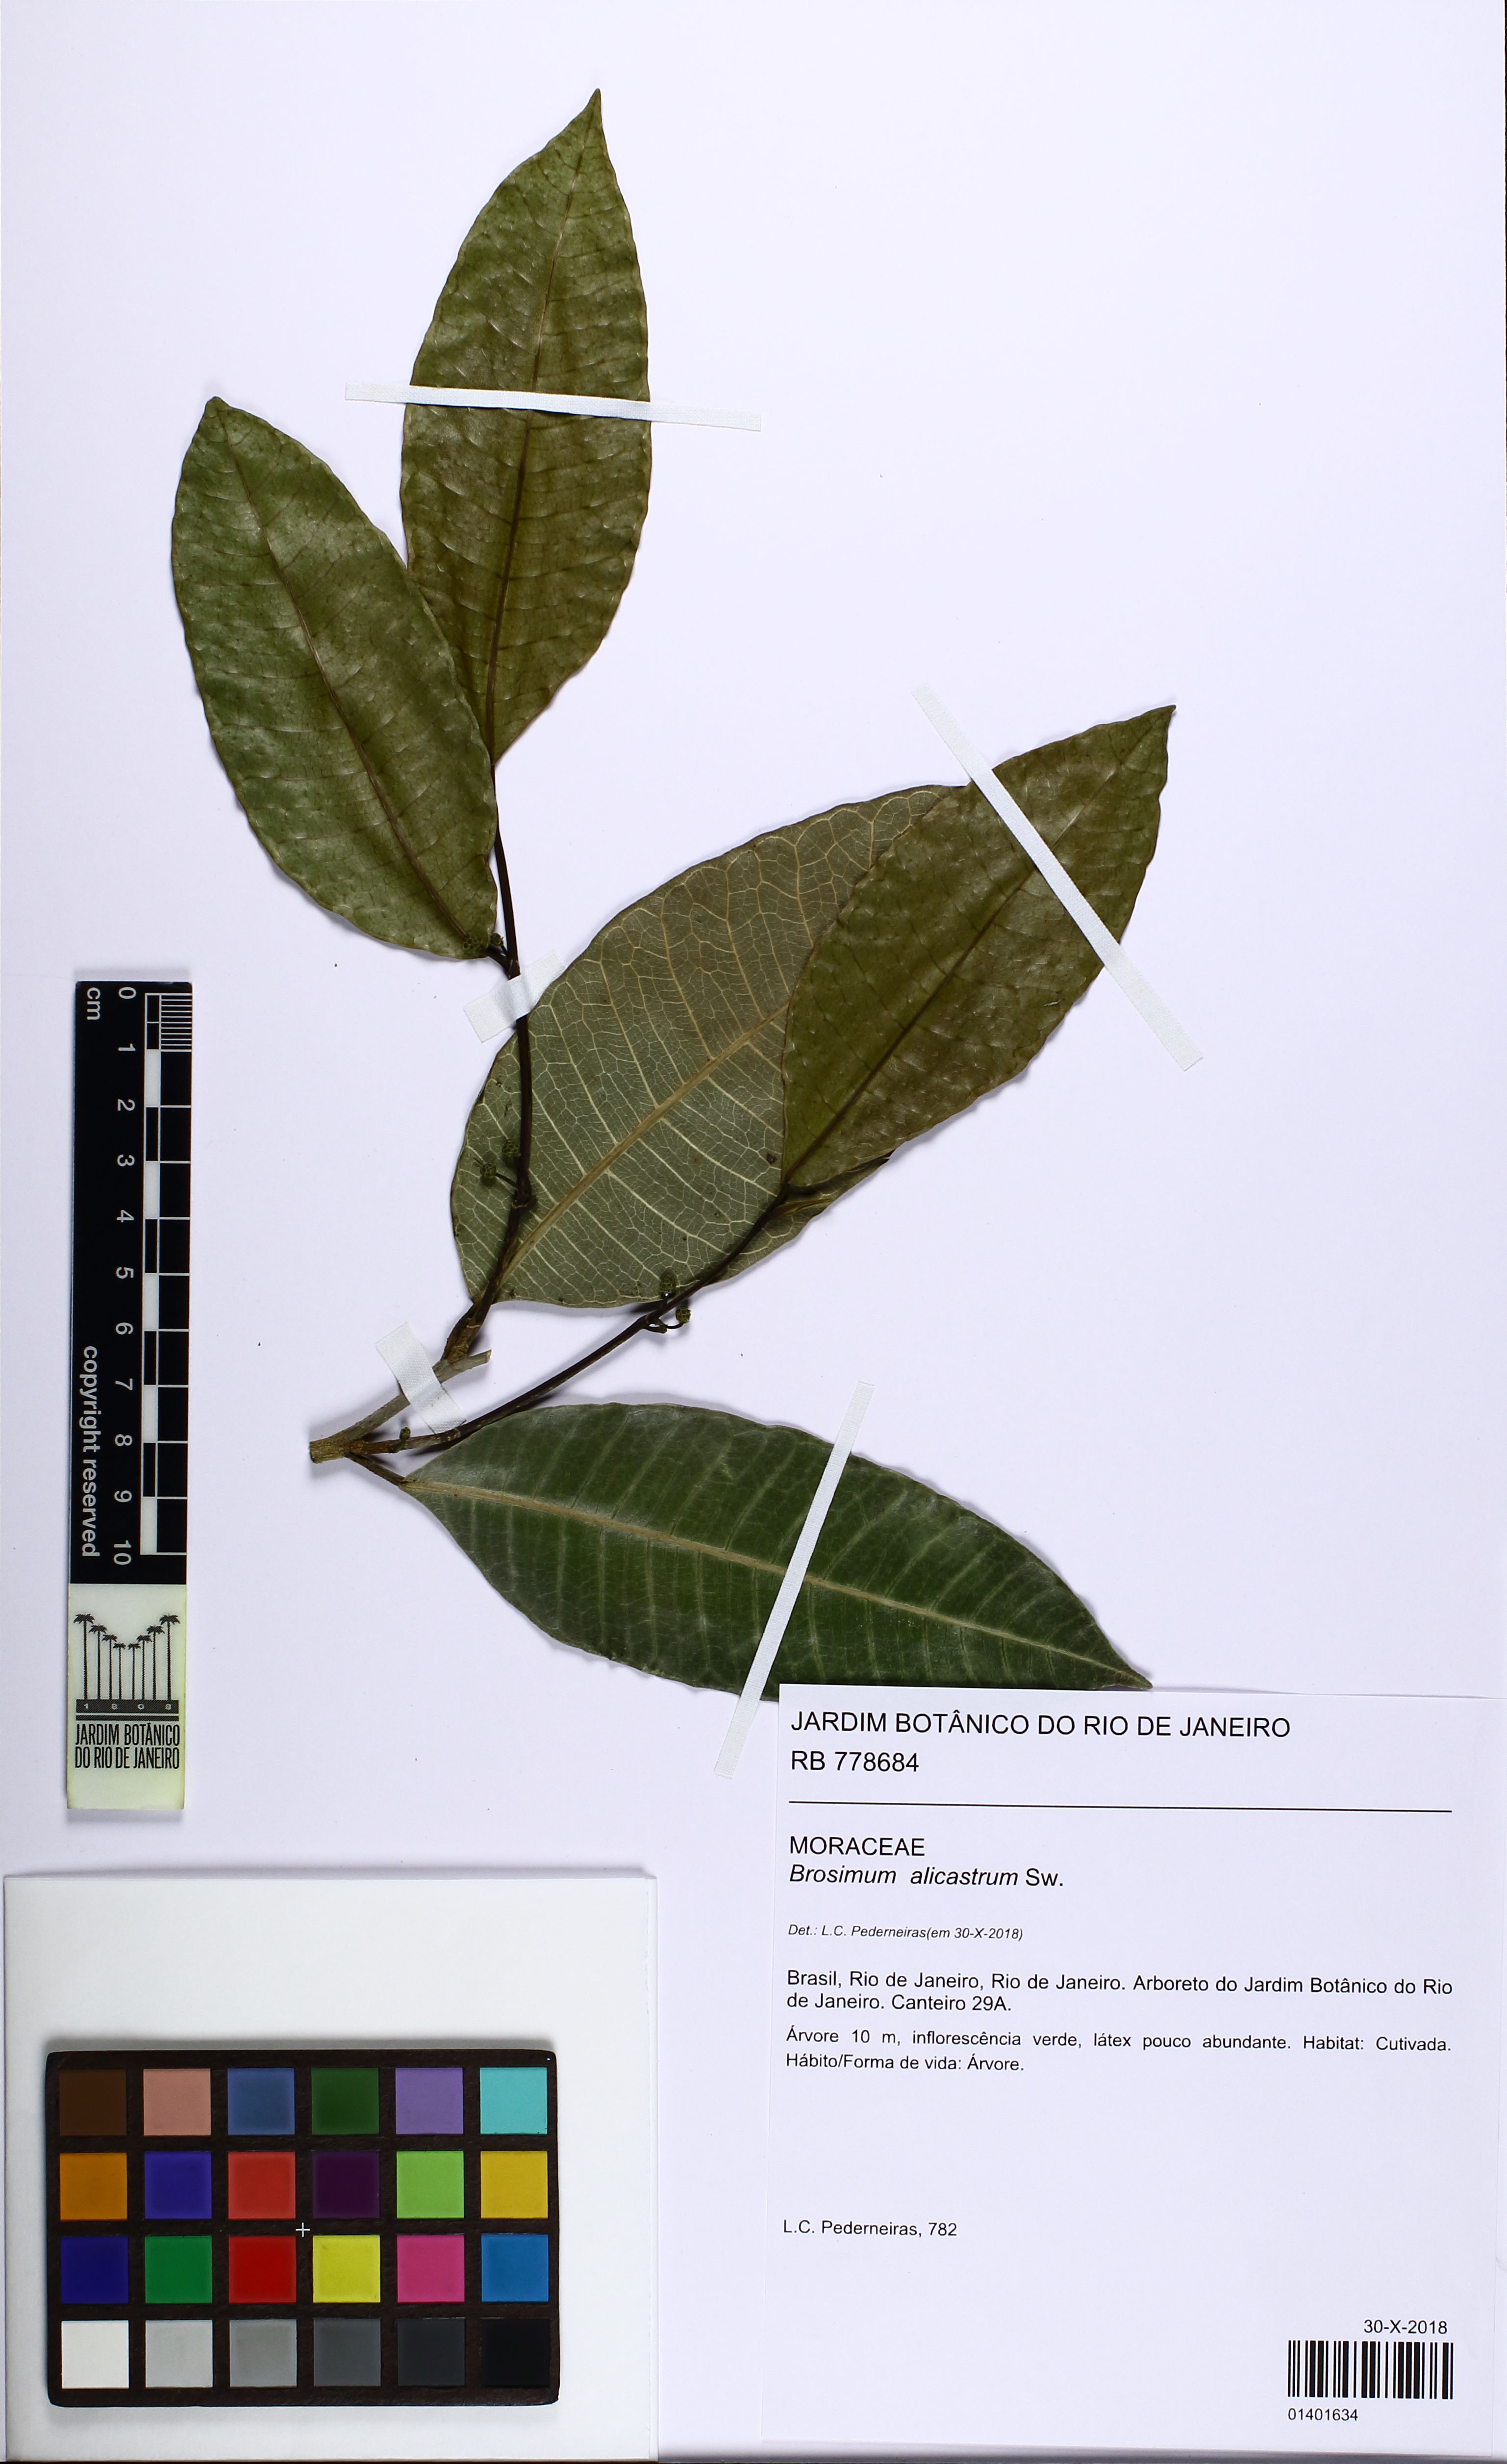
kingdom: Plantae
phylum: Tracheophyta
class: Magnoliopsida
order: Rosales
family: Moraceae
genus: Brosimum
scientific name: Brosimum alicastrum
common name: Breadnut
